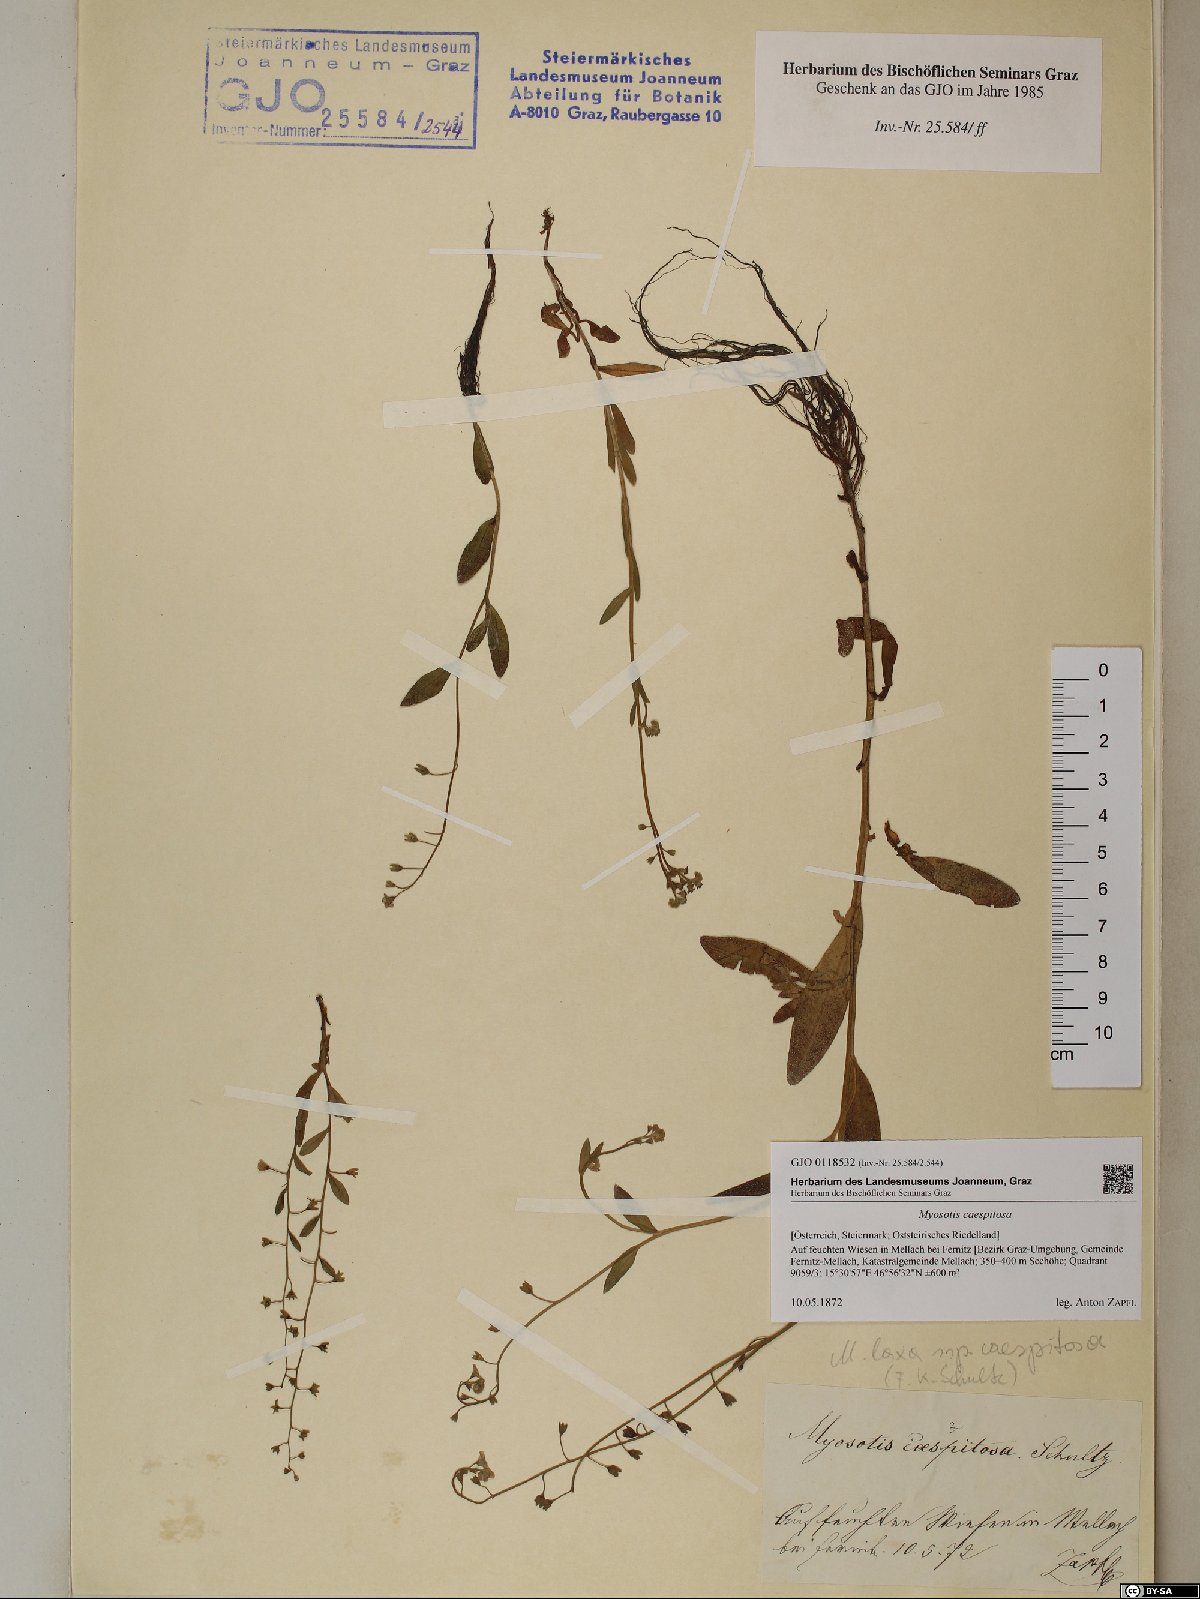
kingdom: Plantae
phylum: Tracheophyta
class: Magnoliopsida
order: Boraginales
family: Boraginaceae
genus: Myosotis
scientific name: Myosotis laxa
